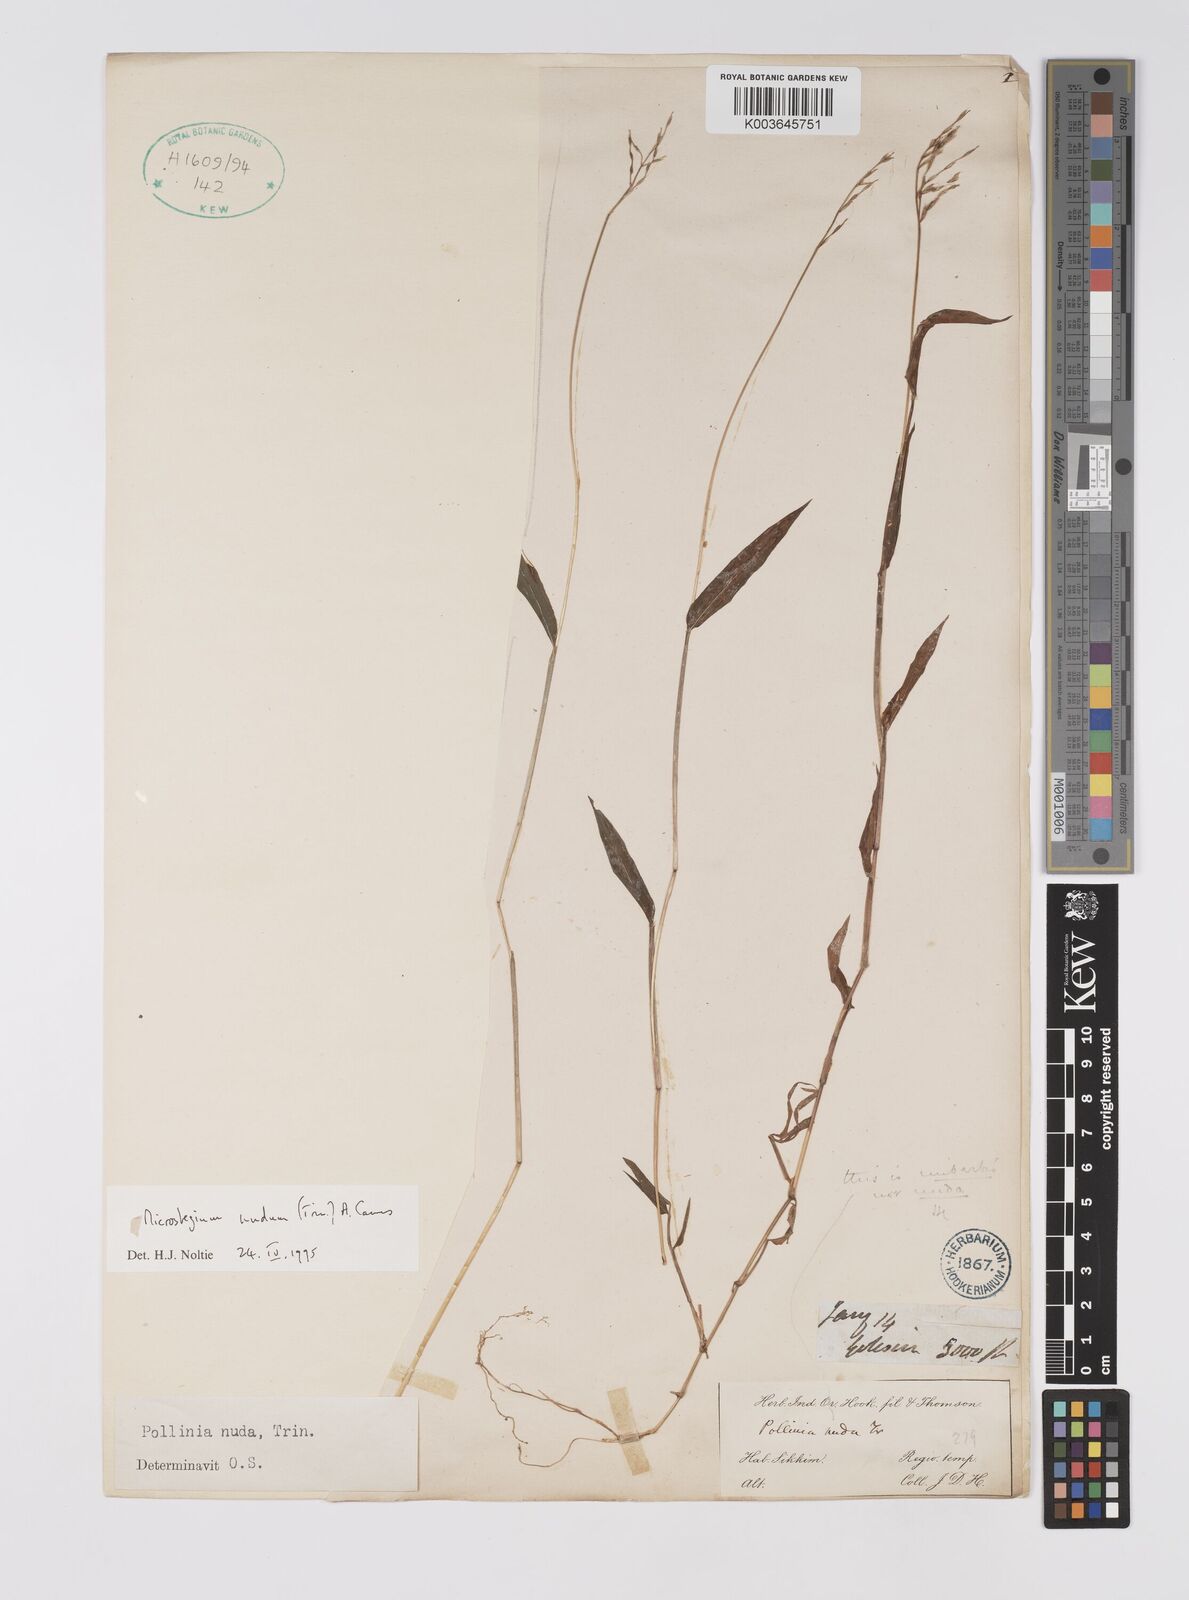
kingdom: Plantae
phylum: Tracheophyta
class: Liliopsida
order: Poales
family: Poaceae
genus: Microstegium
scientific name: Microstegium nudum
